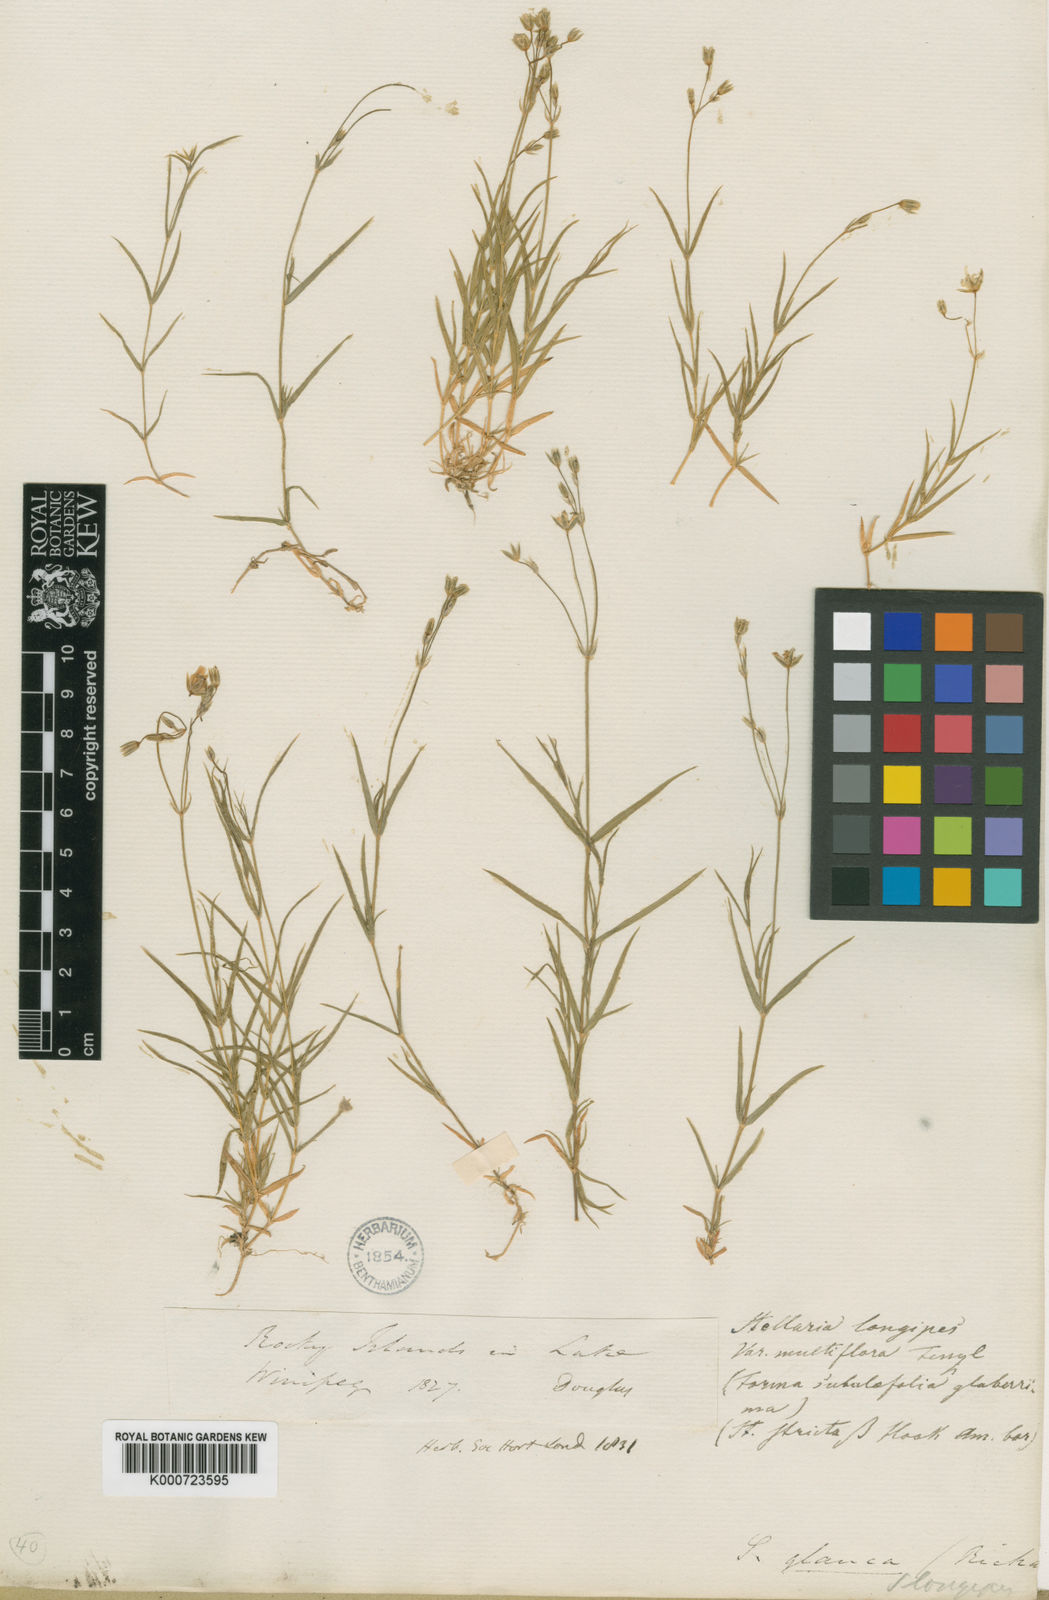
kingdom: Plantae
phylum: Tracheophyta
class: Magnoliopsida
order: Caryophyllales
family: Caryophyllaceae
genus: Stellaria
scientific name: Stellaria longipes
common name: Goldie's starwort
